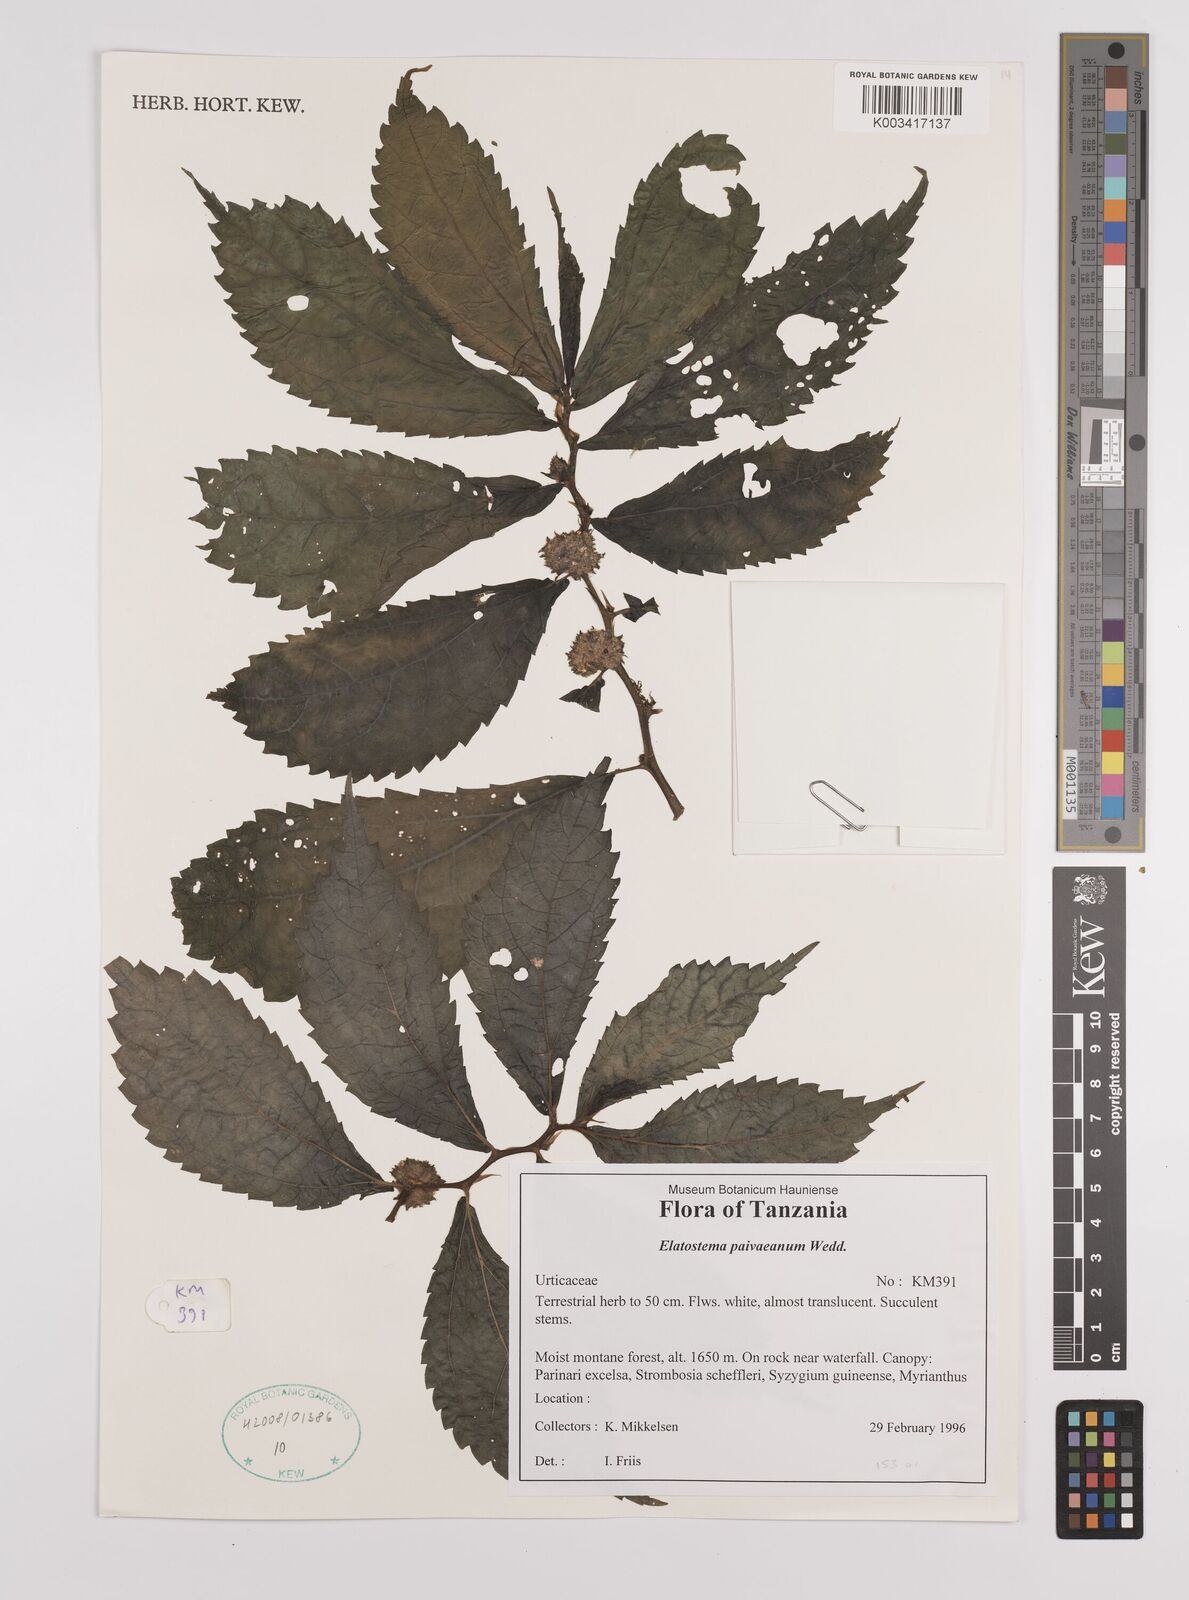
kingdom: Plantae
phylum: Tracheophyta
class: Magnoliopsida
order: Rosales
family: Urticaceae
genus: Elatostema
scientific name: Elatostema paivaeanum
